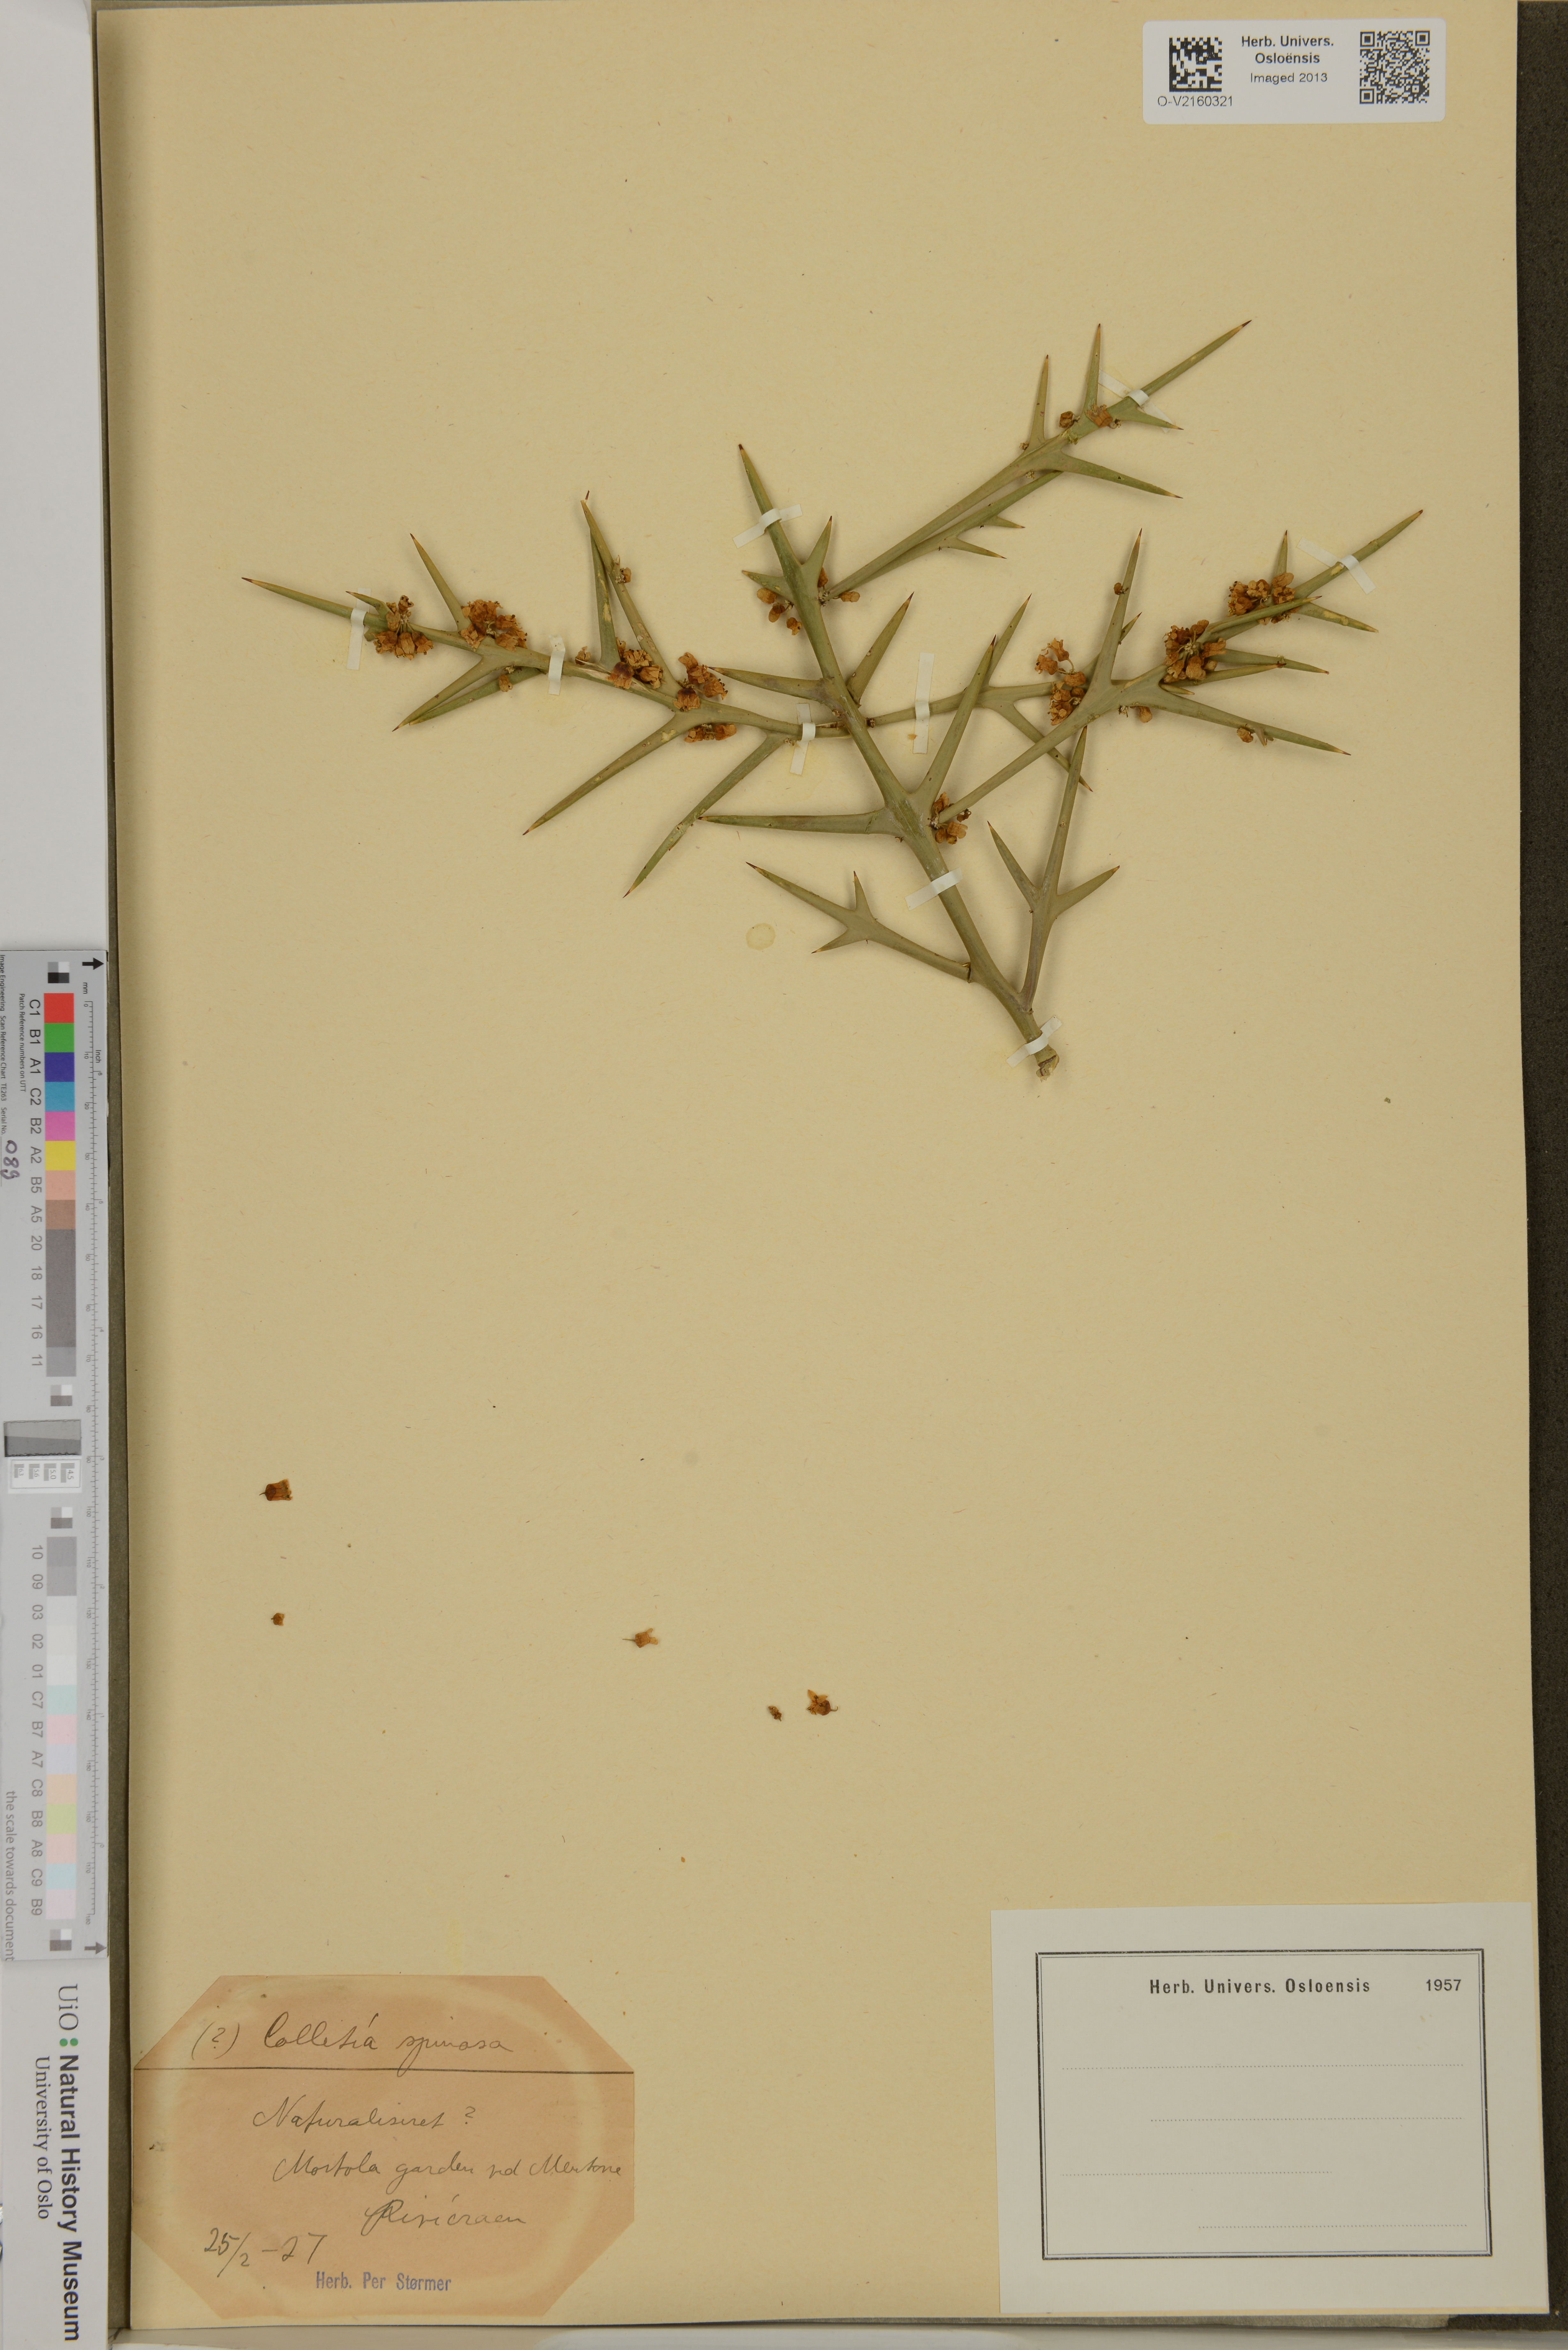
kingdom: Plantae
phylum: Tracheophyta
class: Magnoliopsida
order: Rosales
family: Rhamnaceae
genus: Colletia
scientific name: Colletia spinosissima
